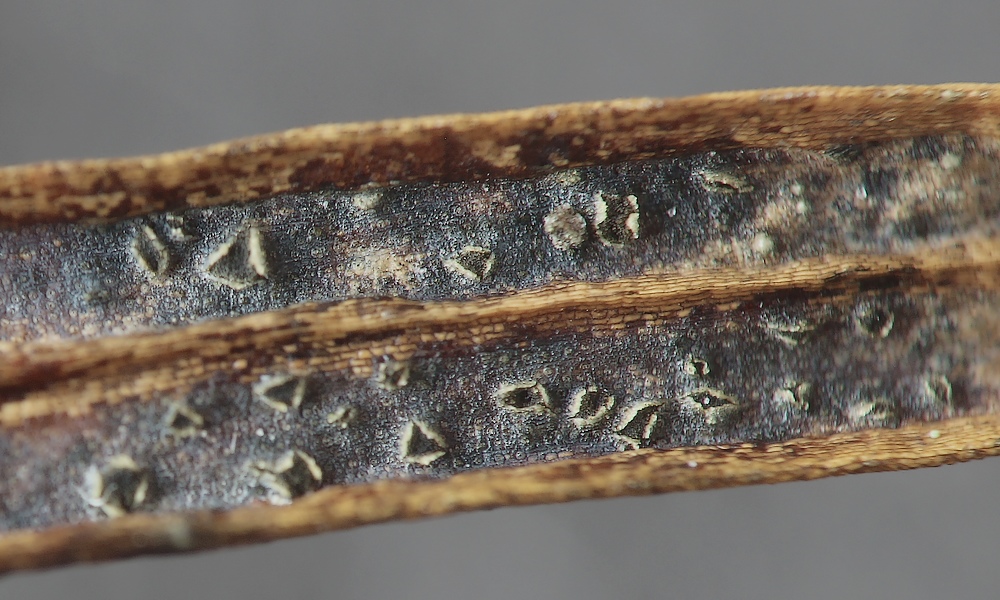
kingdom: Fungi
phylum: Ascomycota
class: Leotiomycetes
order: Helotiales
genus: Cryptocline
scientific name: Cryptocline taxicola
